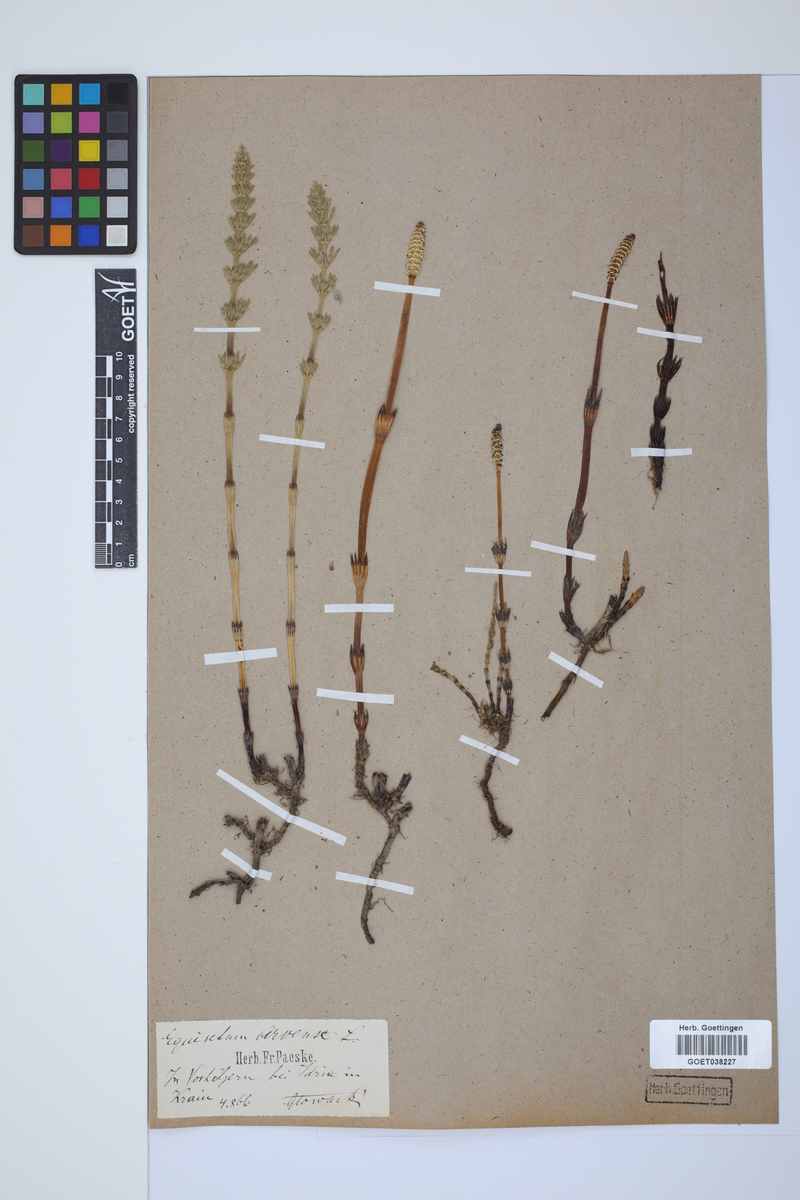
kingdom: Plantae
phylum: Tracheophyta
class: Polypodiopsida
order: Equisetales
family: Equisetaceae
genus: Equisetum
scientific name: Equisetum arvense
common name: Field horsetail
